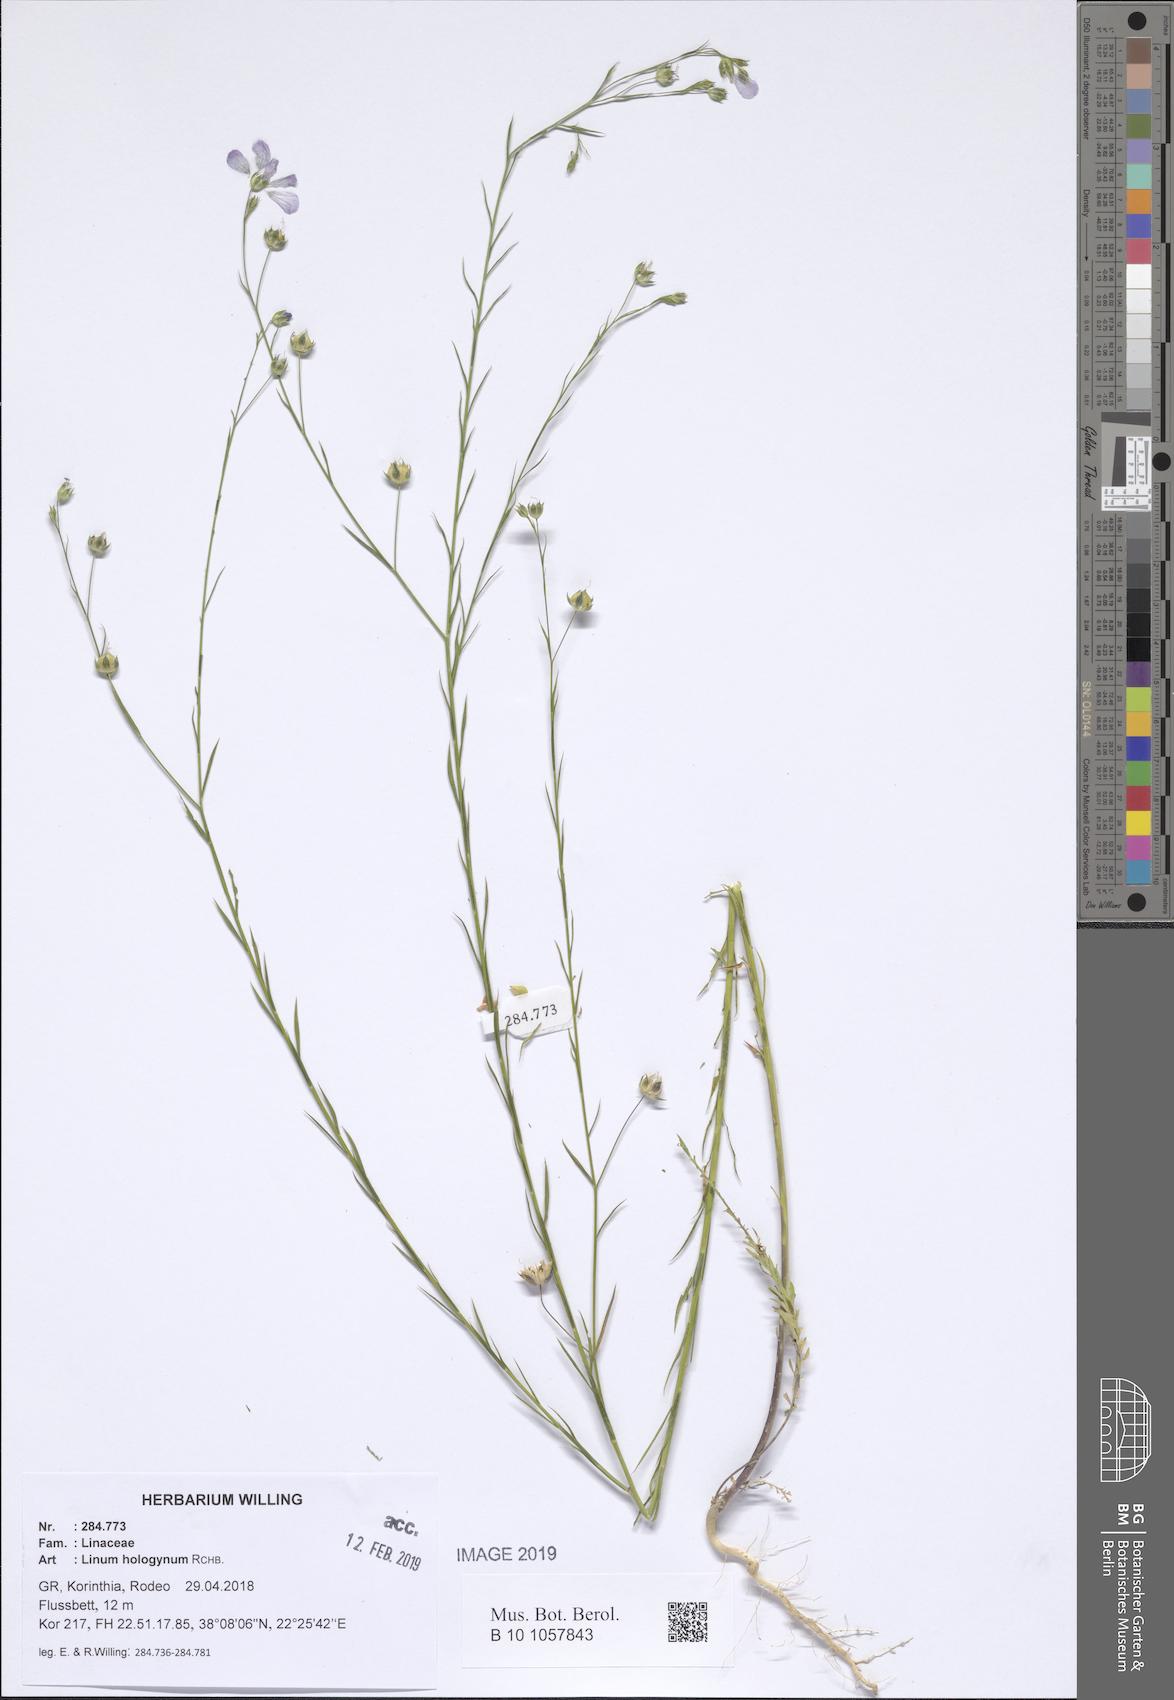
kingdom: Plantae
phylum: Tracheophyta
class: Magnoliopsida
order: Malpighiales
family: Linaceae
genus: Linum
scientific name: Linum bienne
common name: Pale flax
